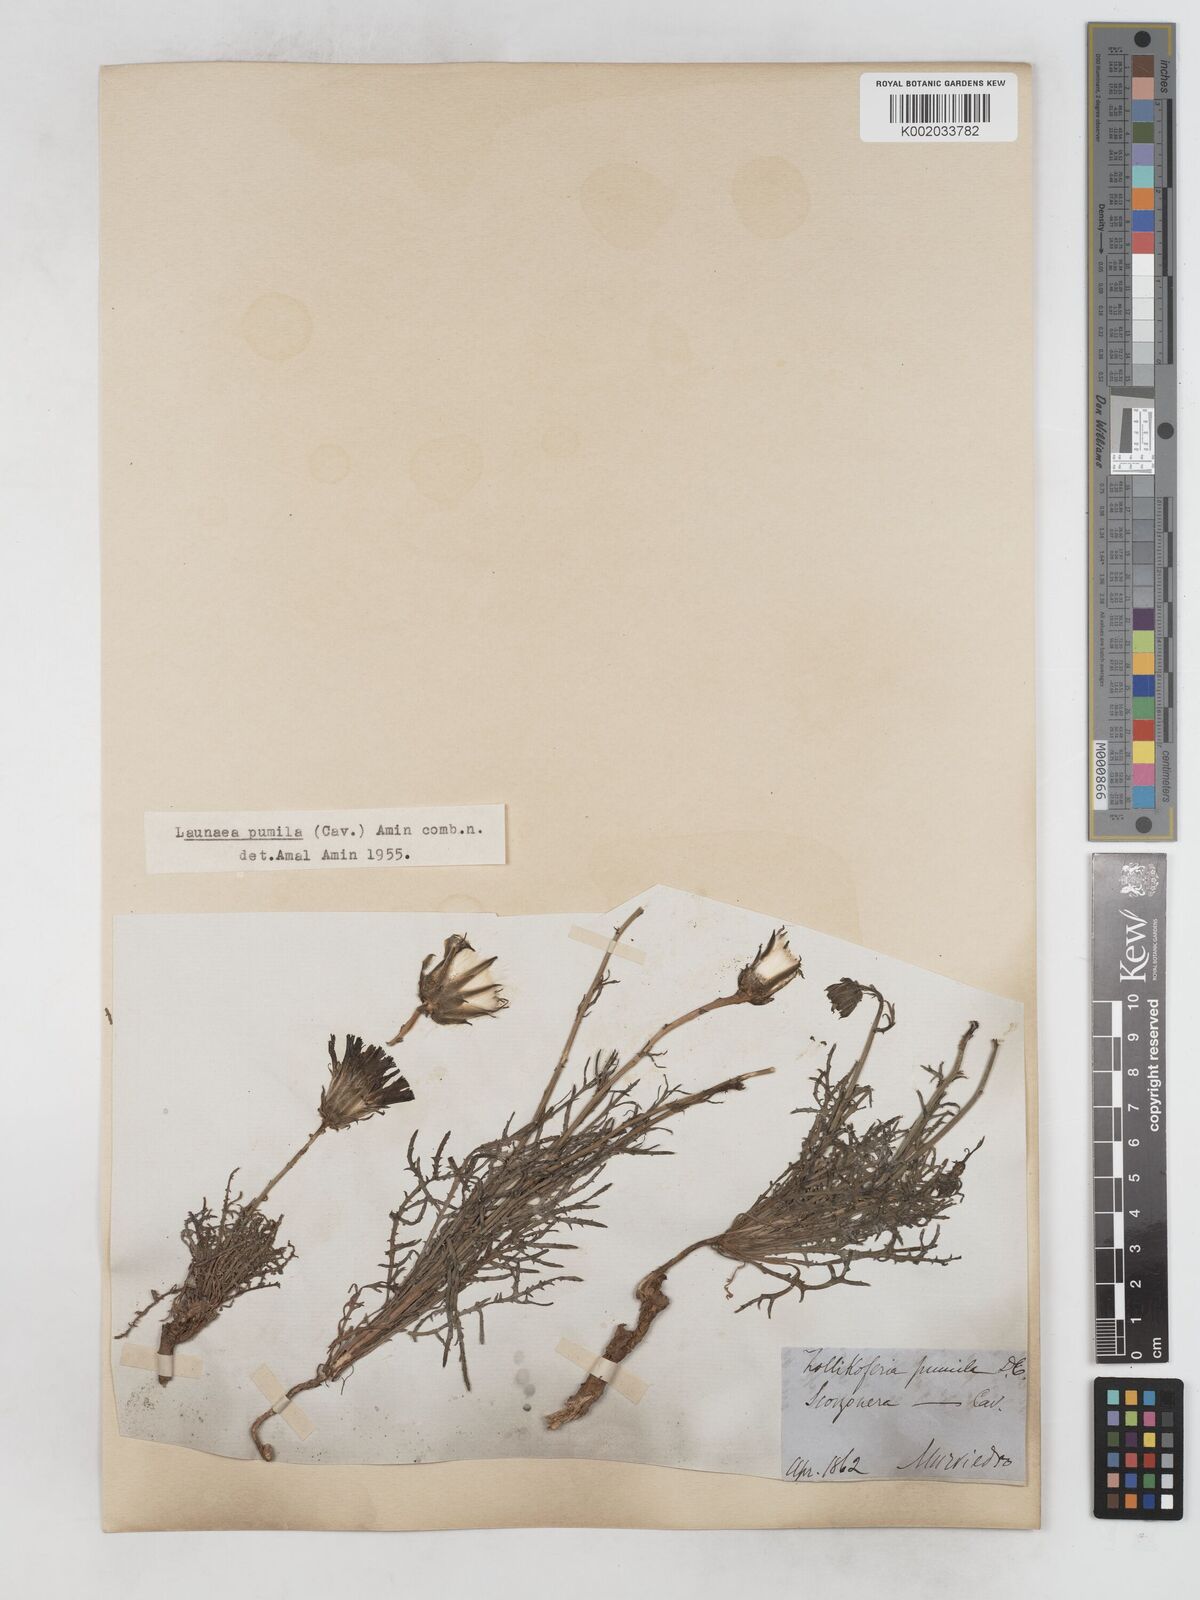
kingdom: Plantae
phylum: Tracheophyta
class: Magnoliopsida
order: Asterales
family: Asteraceae
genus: Launaea
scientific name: Launaea pumila
